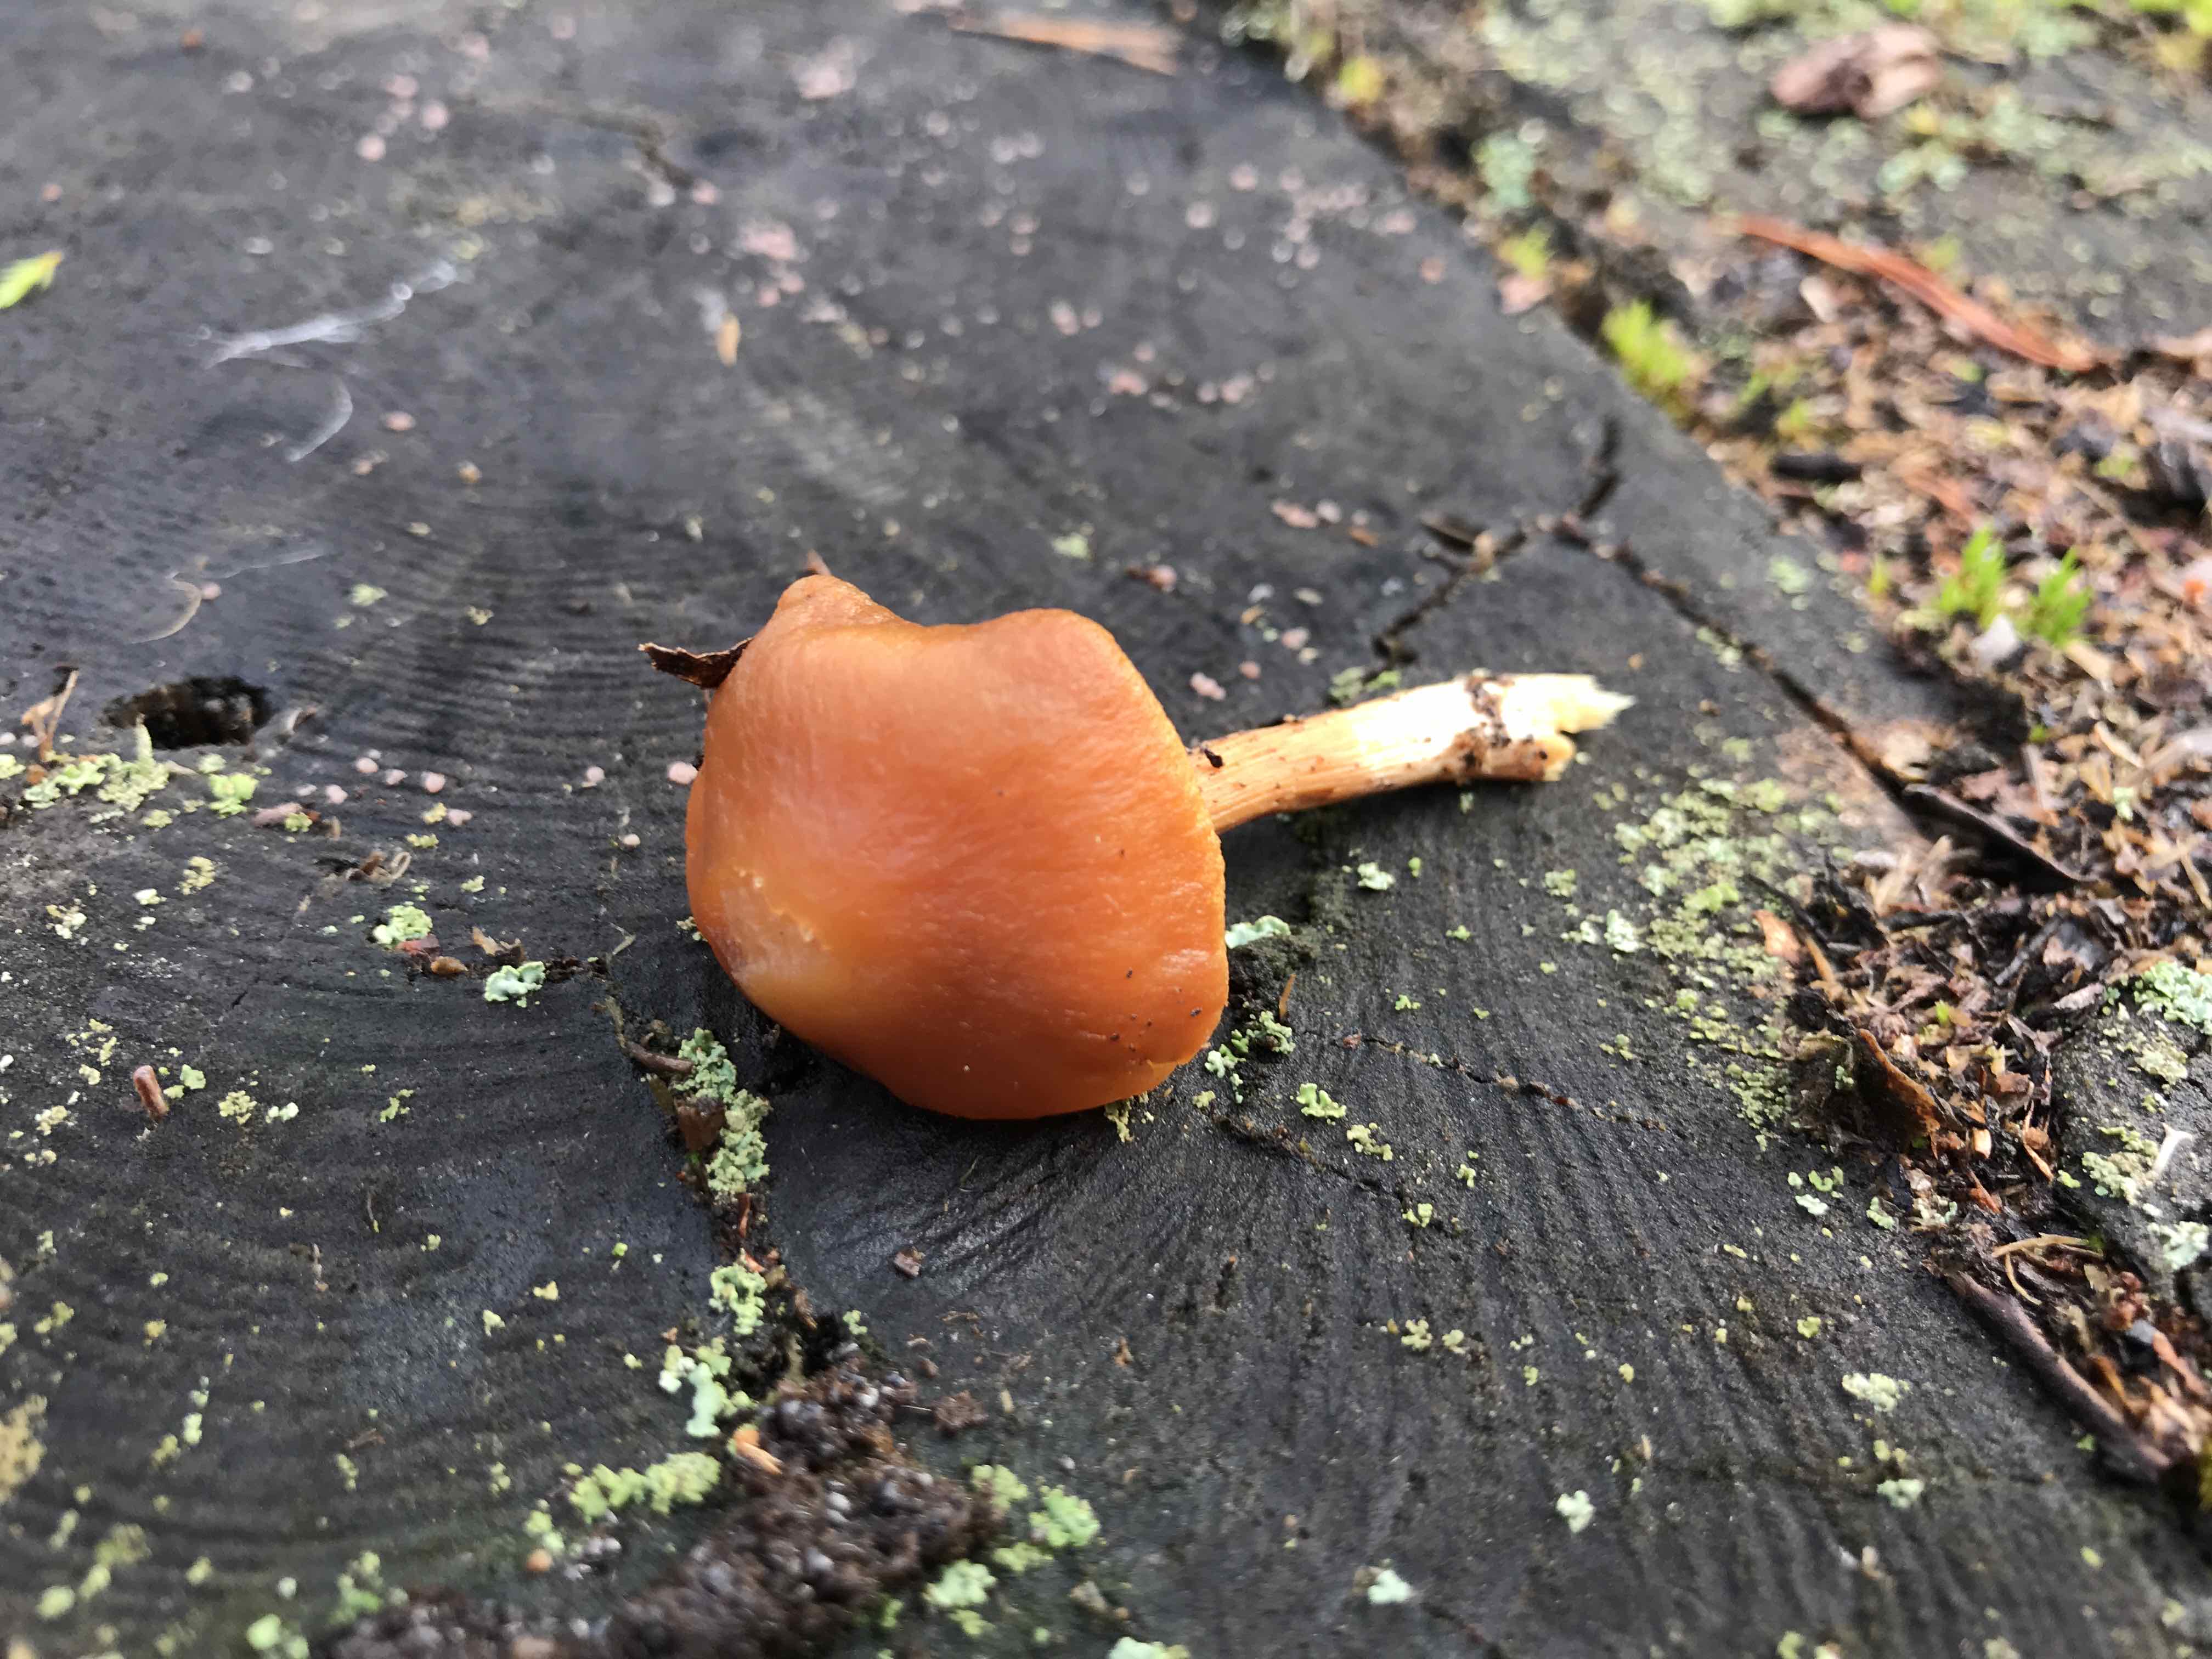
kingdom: Fungi
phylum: Basidiomycota
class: Agaricomycetes
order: Agaricales
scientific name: Agaricales
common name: champignonordenen
